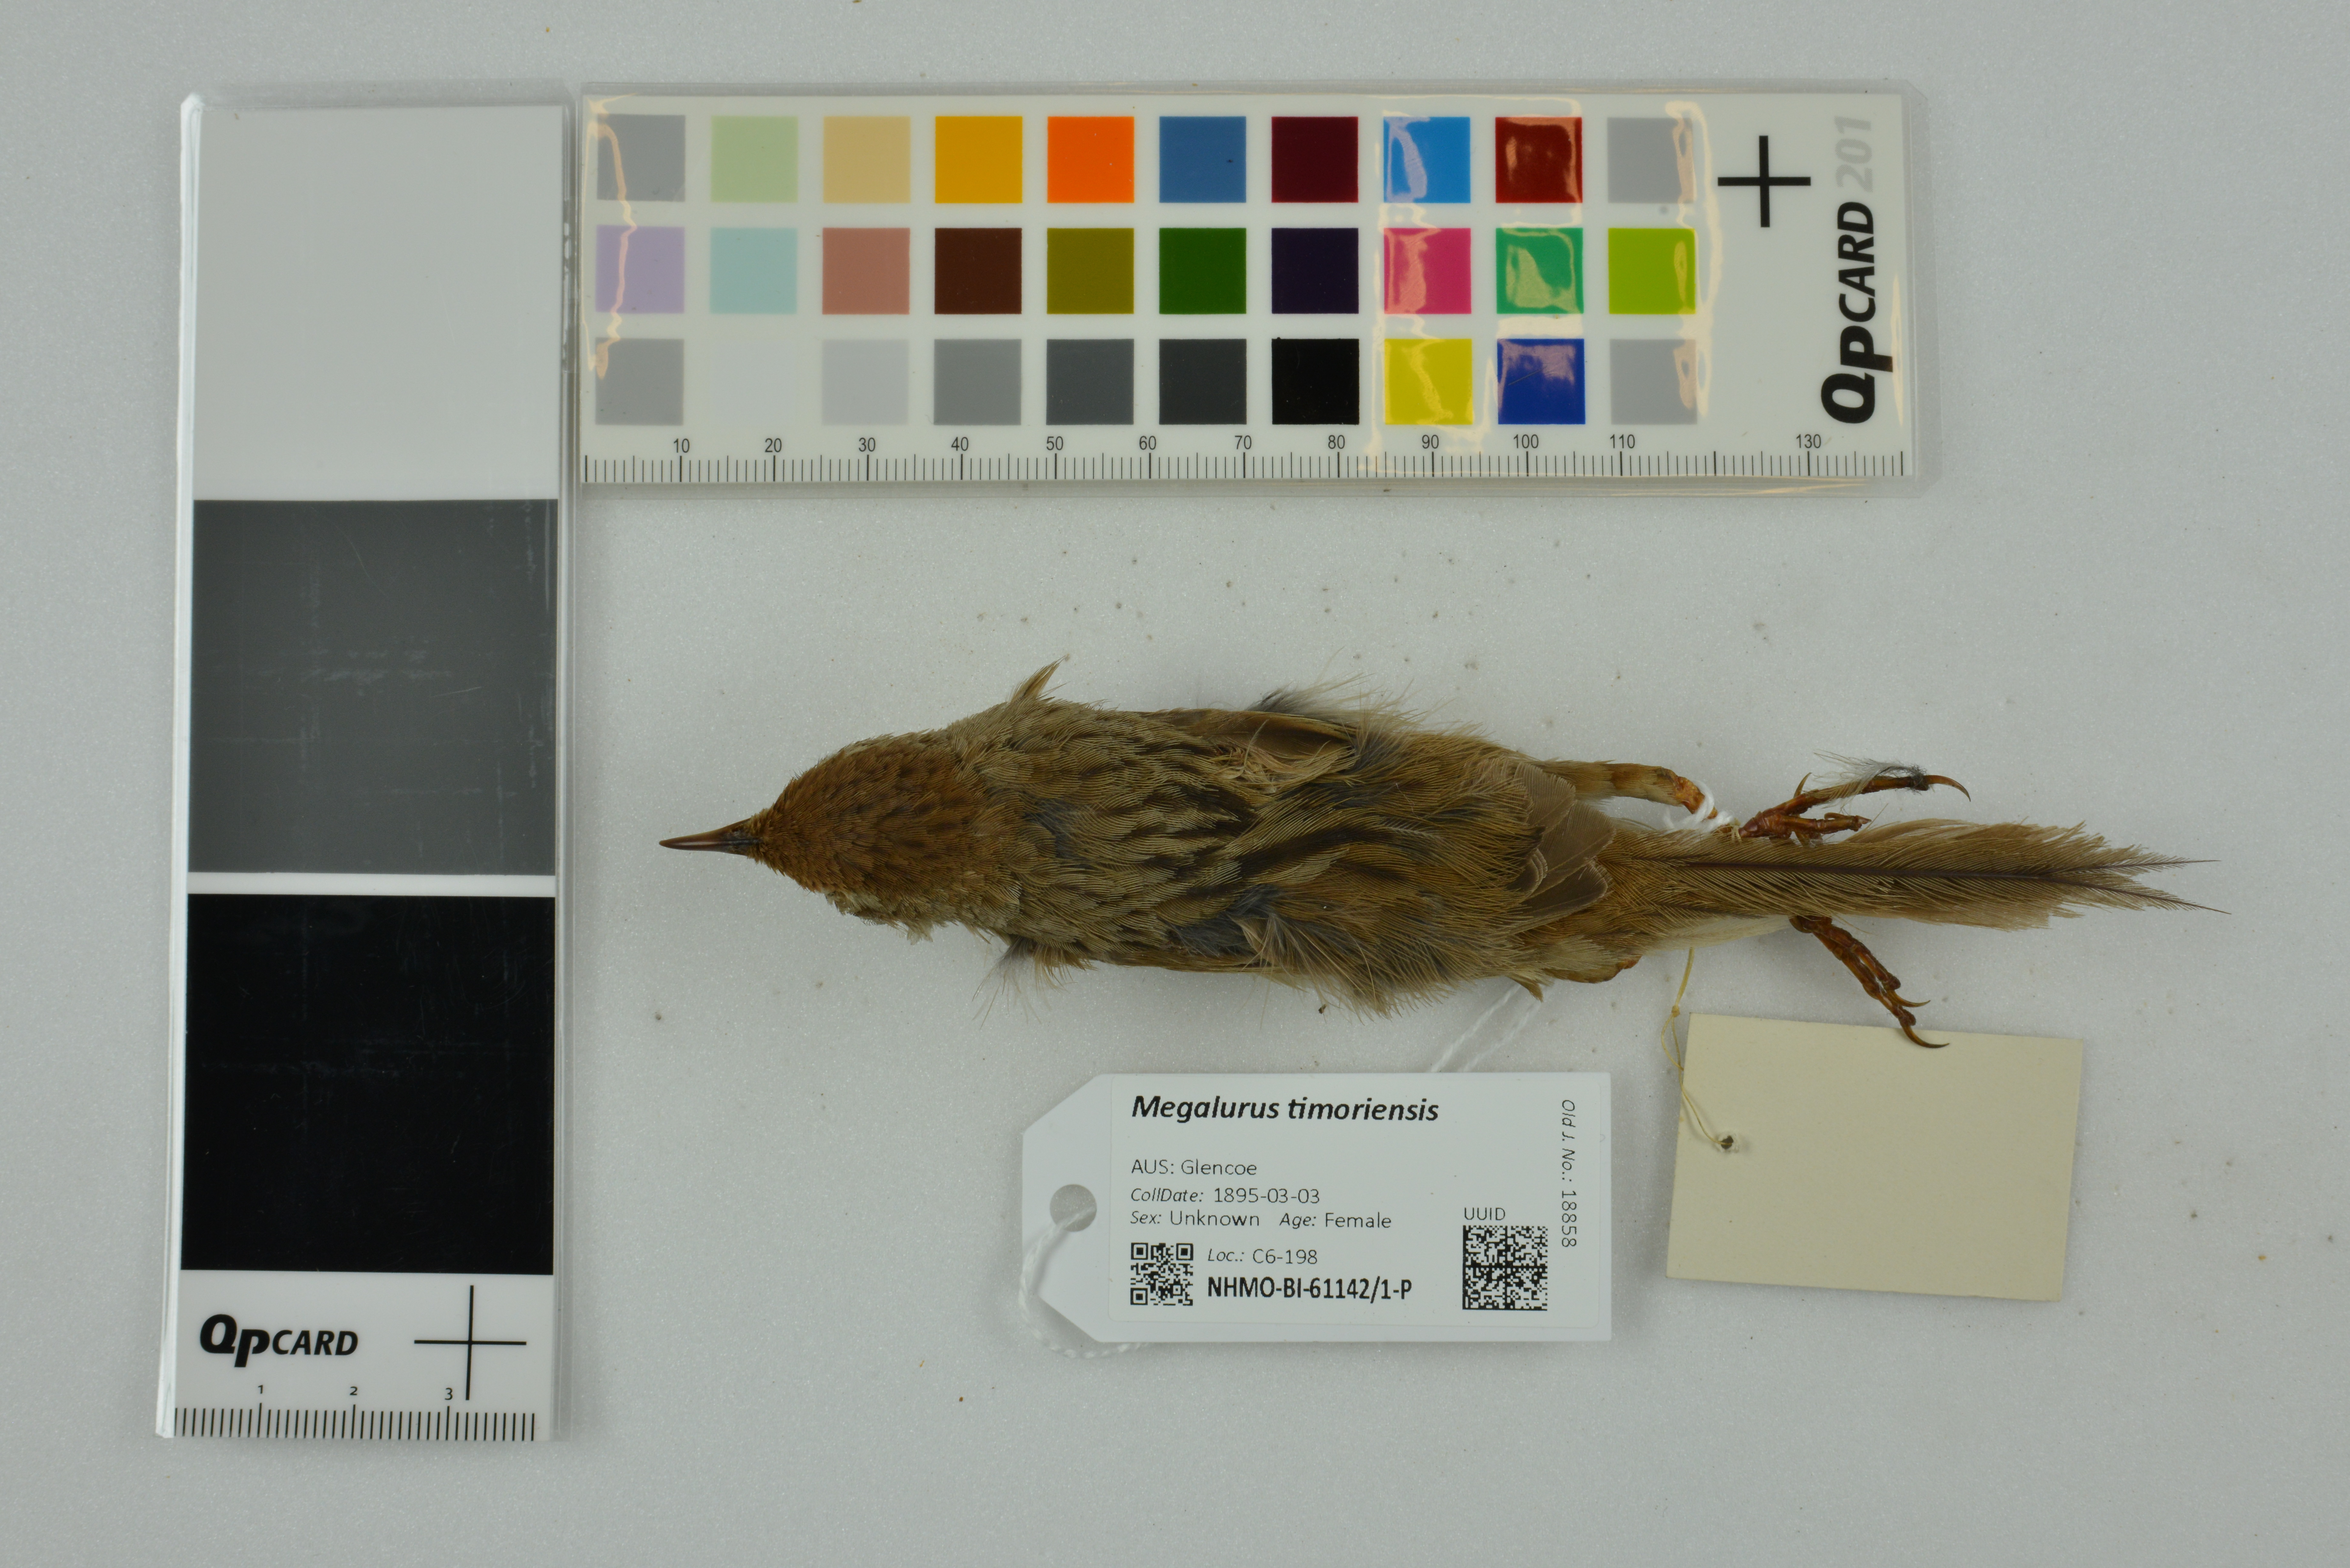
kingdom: Animalia
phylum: Chordata
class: Aves
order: Passeriformes
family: Locustellidae
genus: Megalurus
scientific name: Megalurus timoriensis
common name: Tawny grassbird
